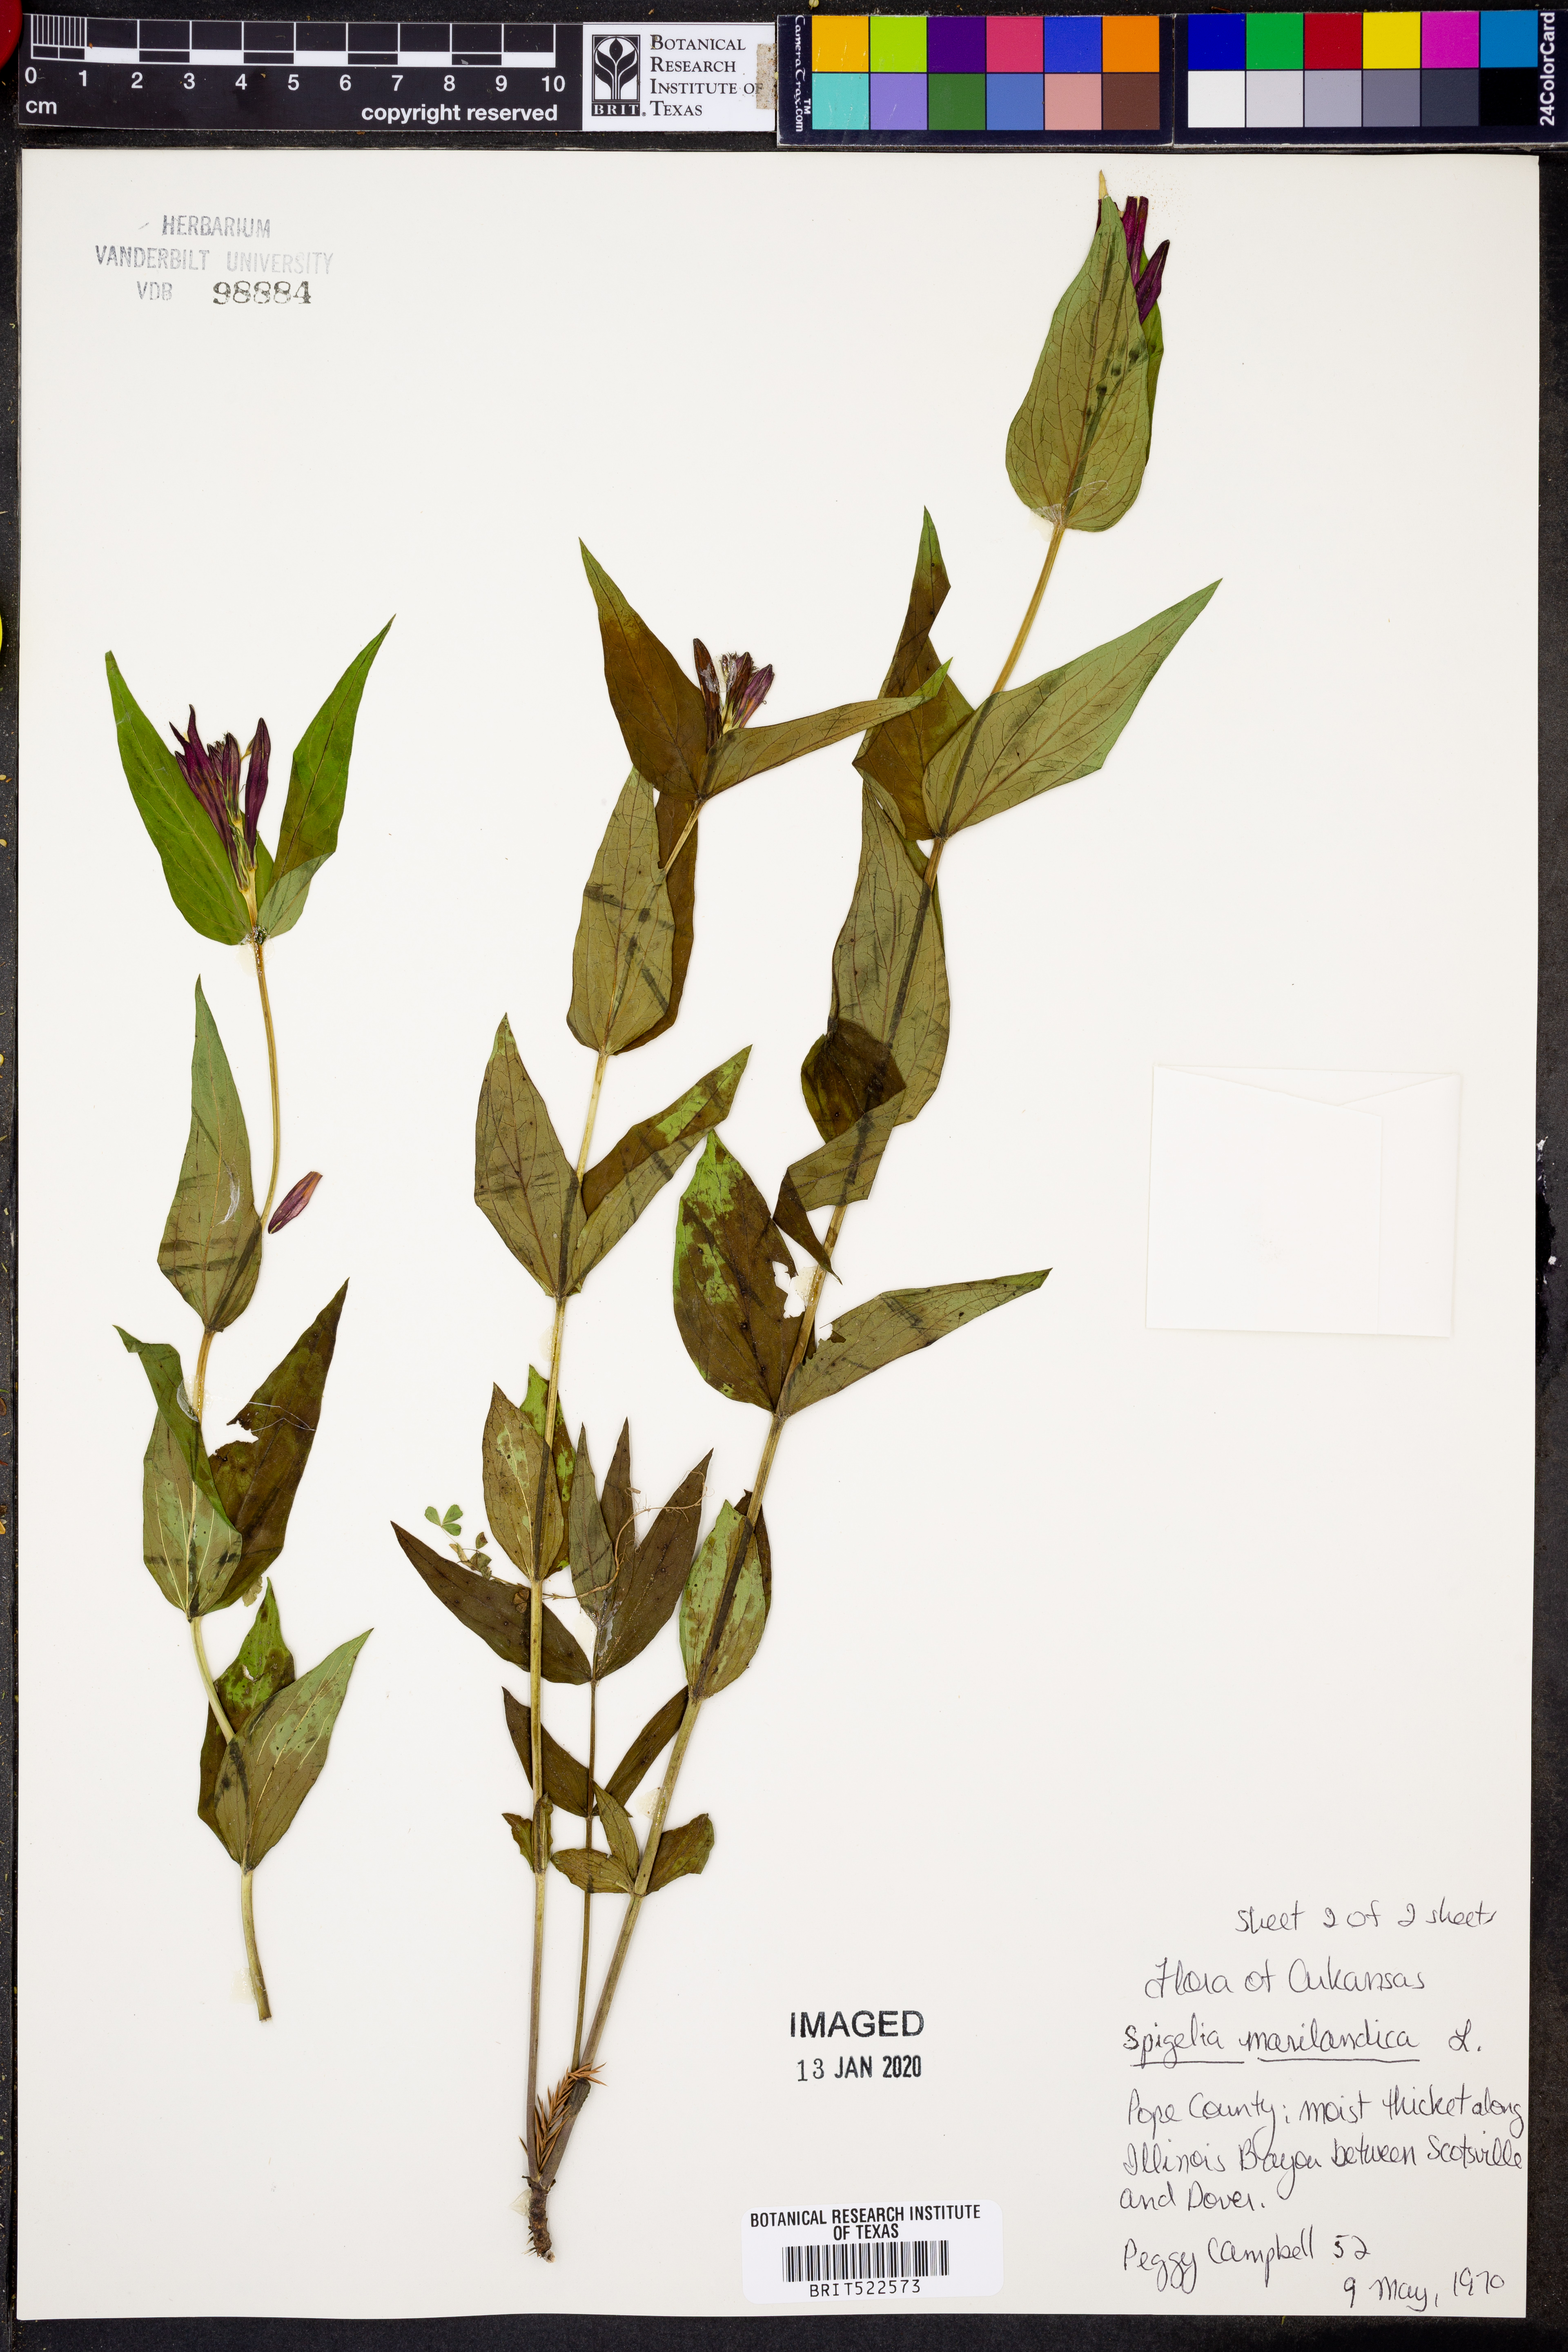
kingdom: Plantae
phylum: Tracheophyta
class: Magnoliopsida
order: Gentianales
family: Loganiaceae
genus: Spigelia
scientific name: Spigelia marilandica
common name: Indian-pink
